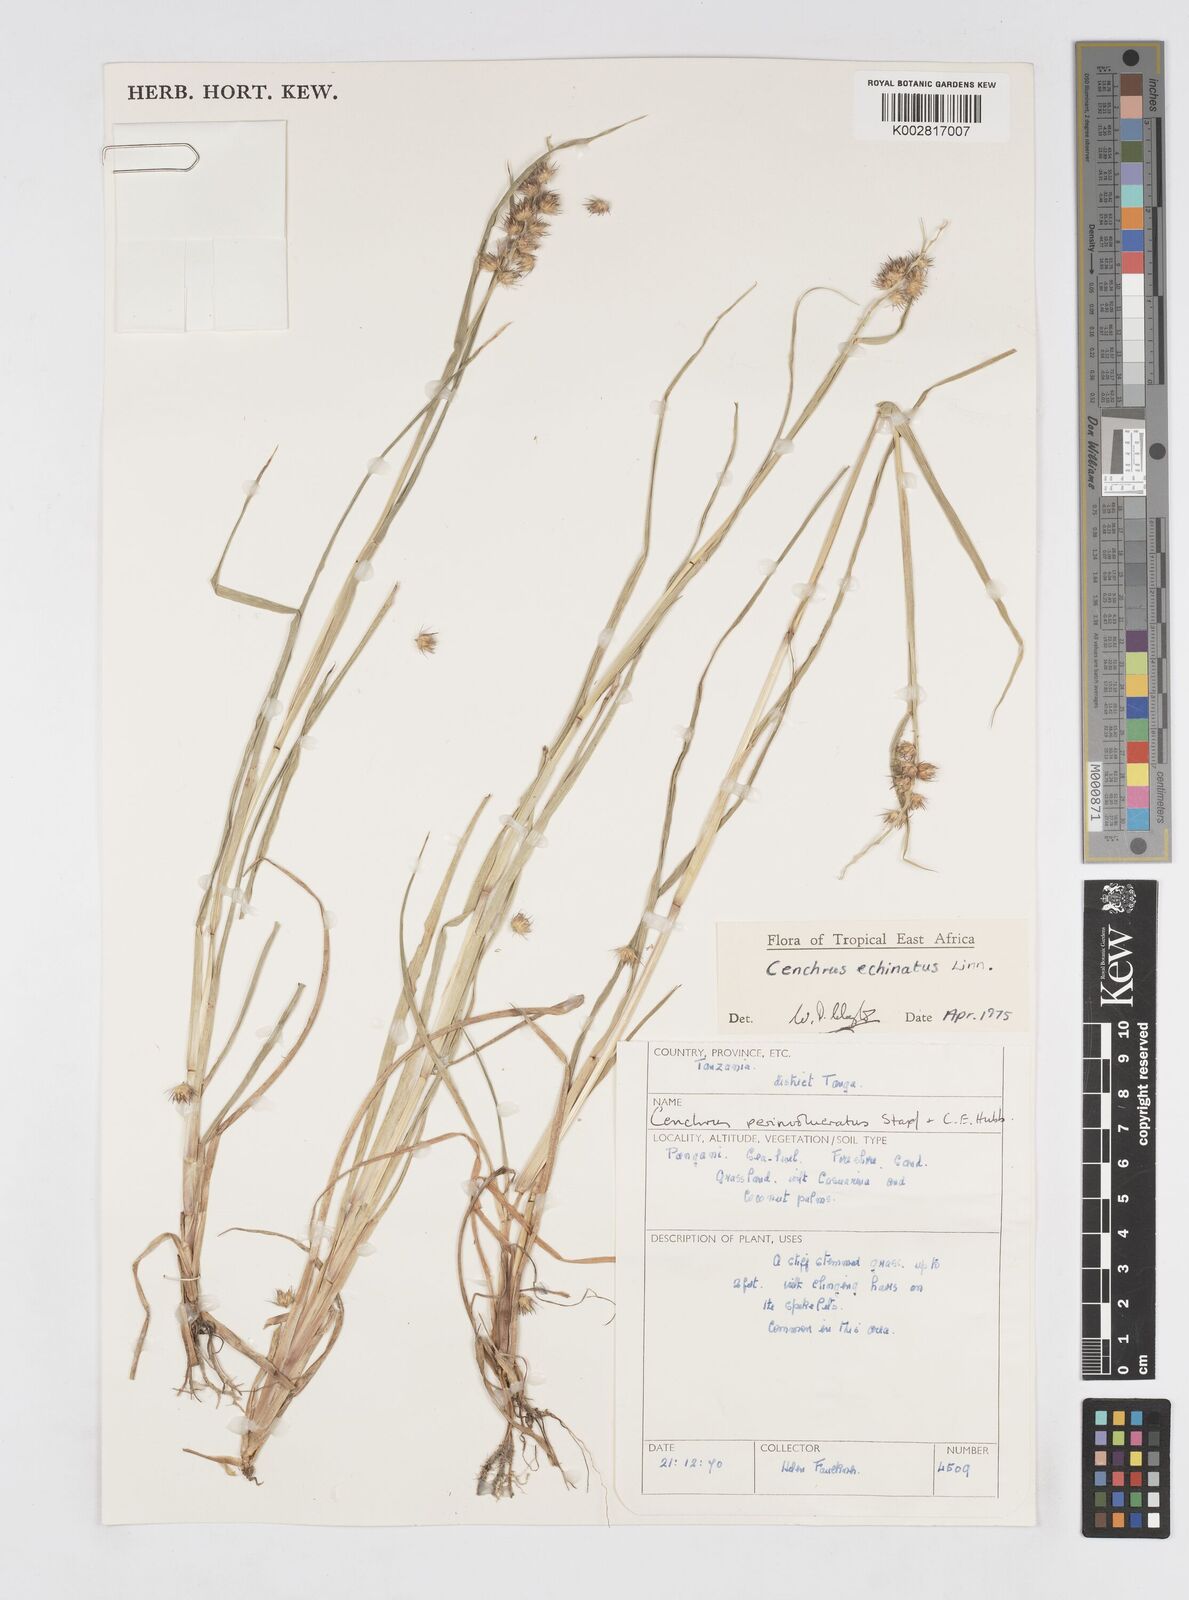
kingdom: Plantae
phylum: Tracheophyta
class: Liliopsida
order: Poales
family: Poaceae
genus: Cenchrus
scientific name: Cenchrus echinatus
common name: Southern sandbur
